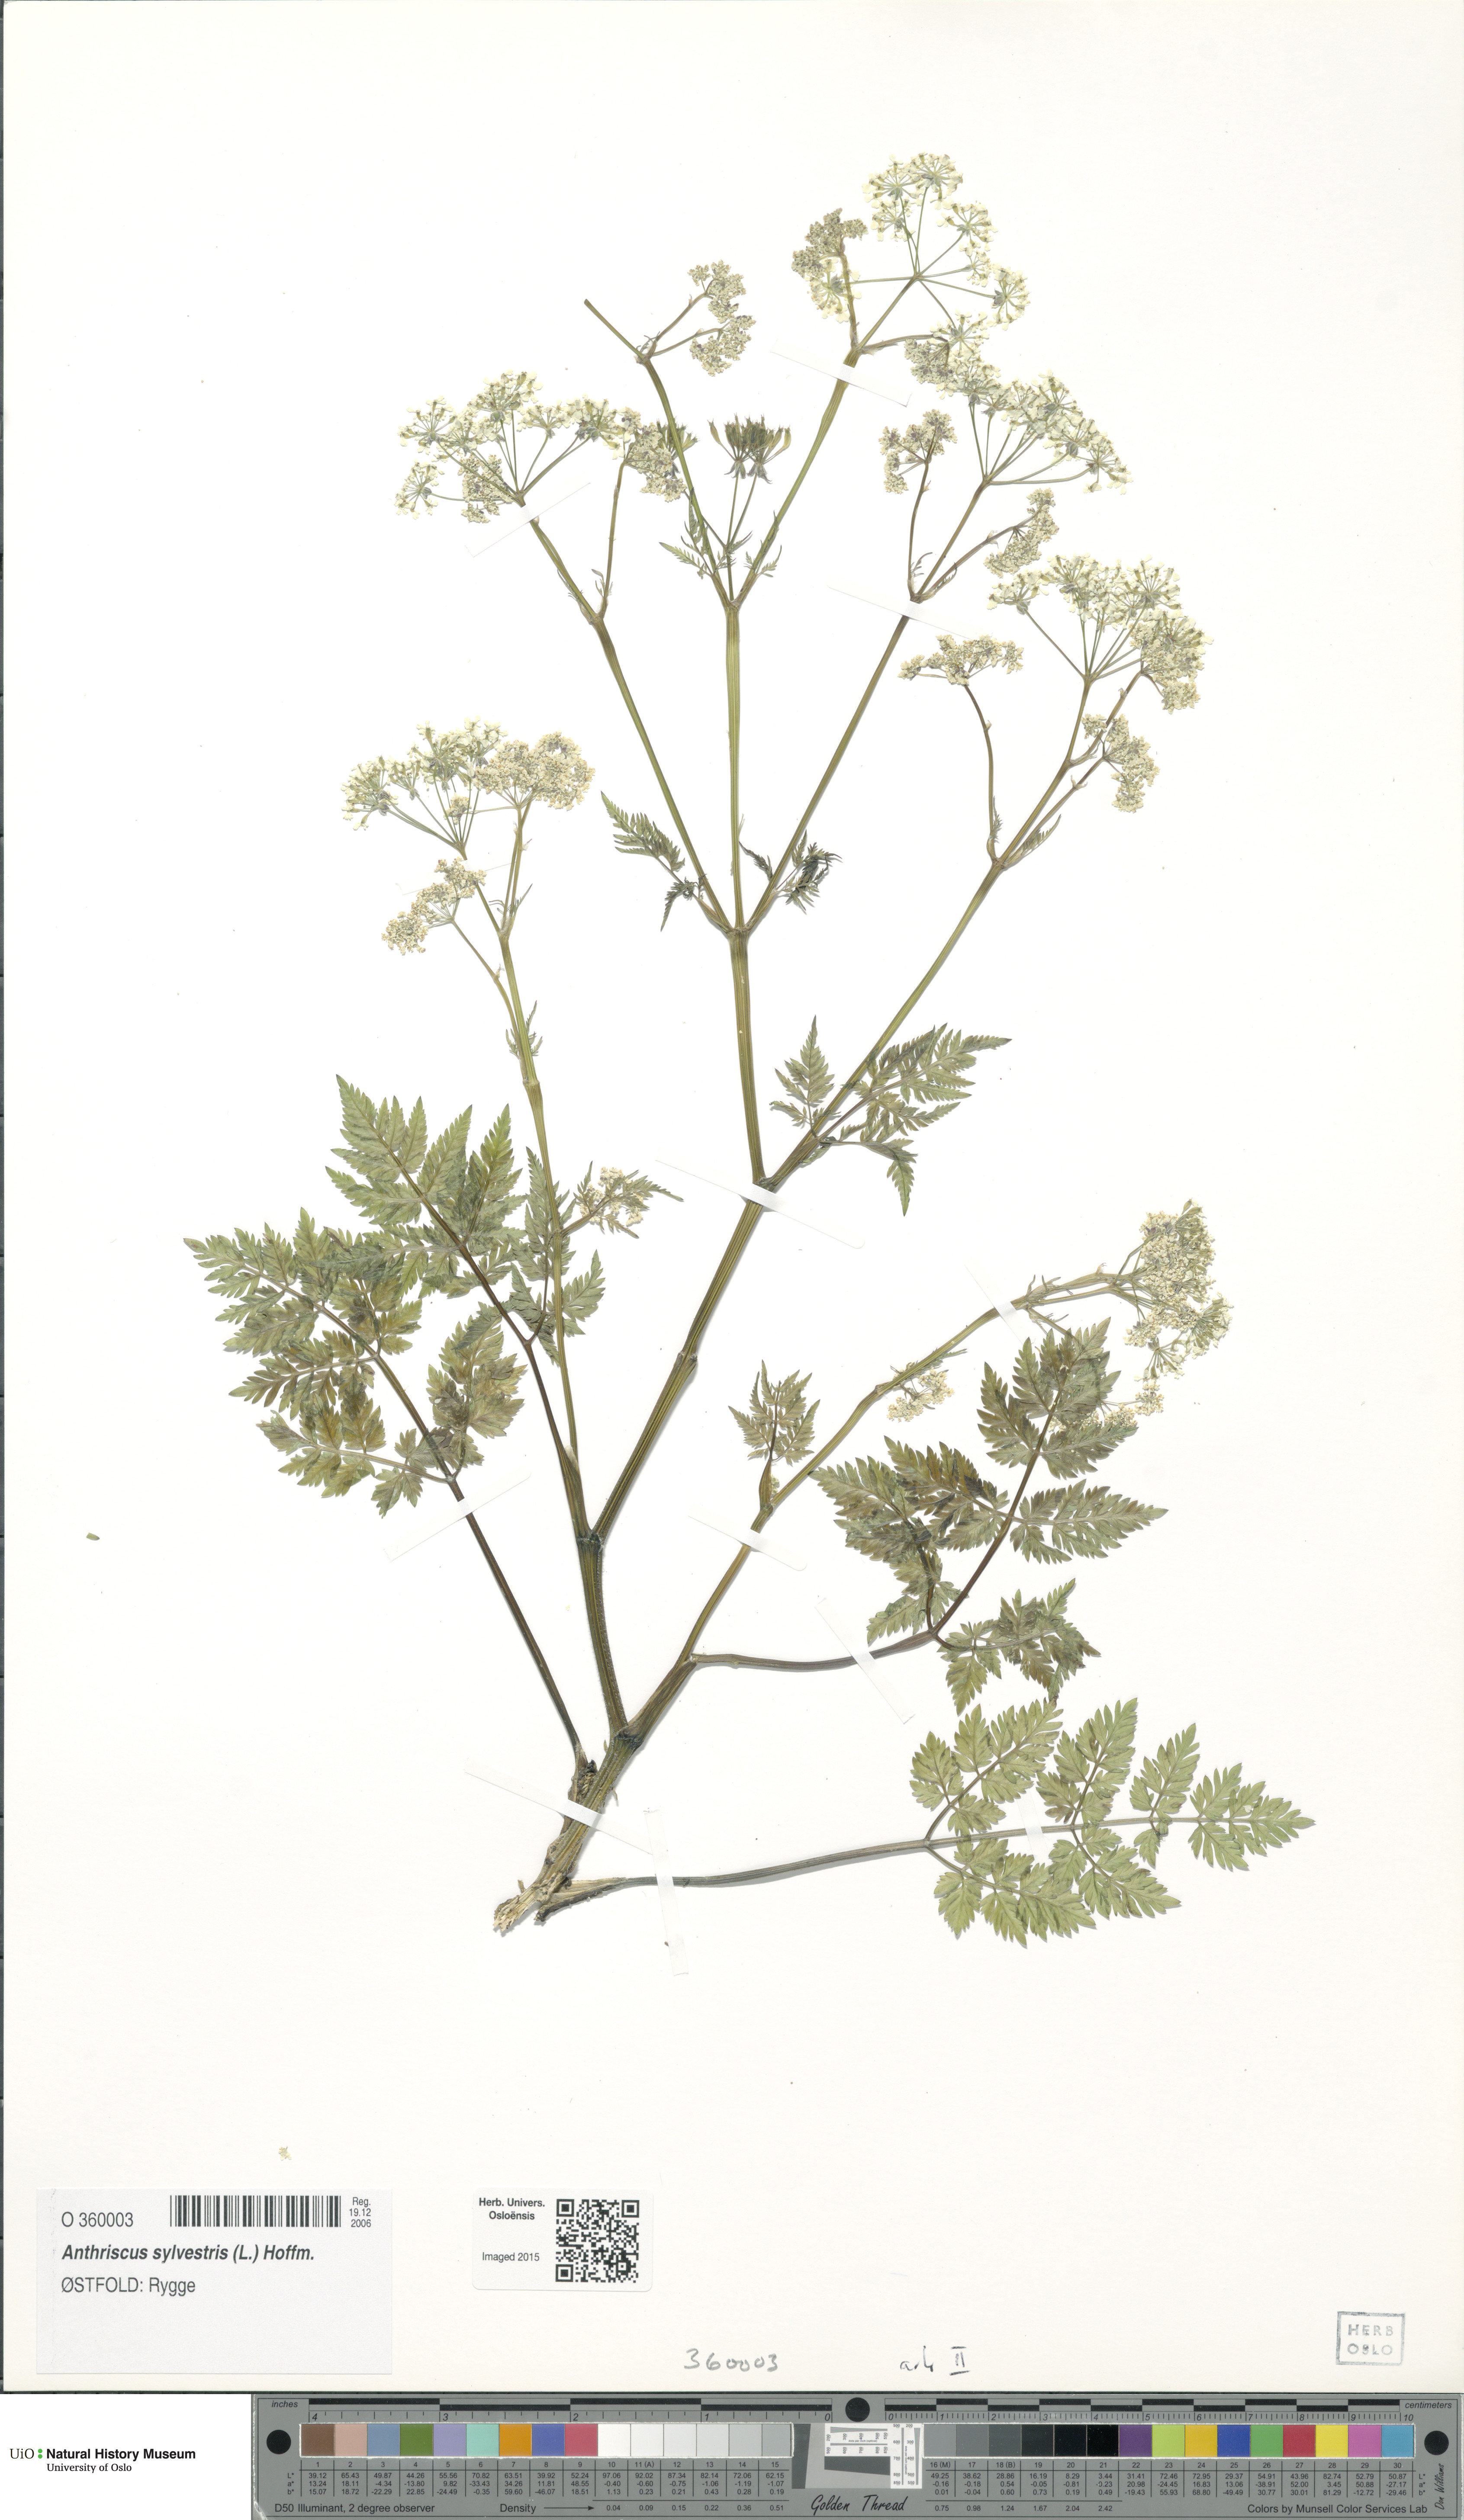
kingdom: Plantae
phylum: Tracheophyta
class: Magnoliopsida
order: Apiales
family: Apiaceae
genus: Anthriscus
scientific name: Anthriscus sylvestris
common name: Cow parsley
